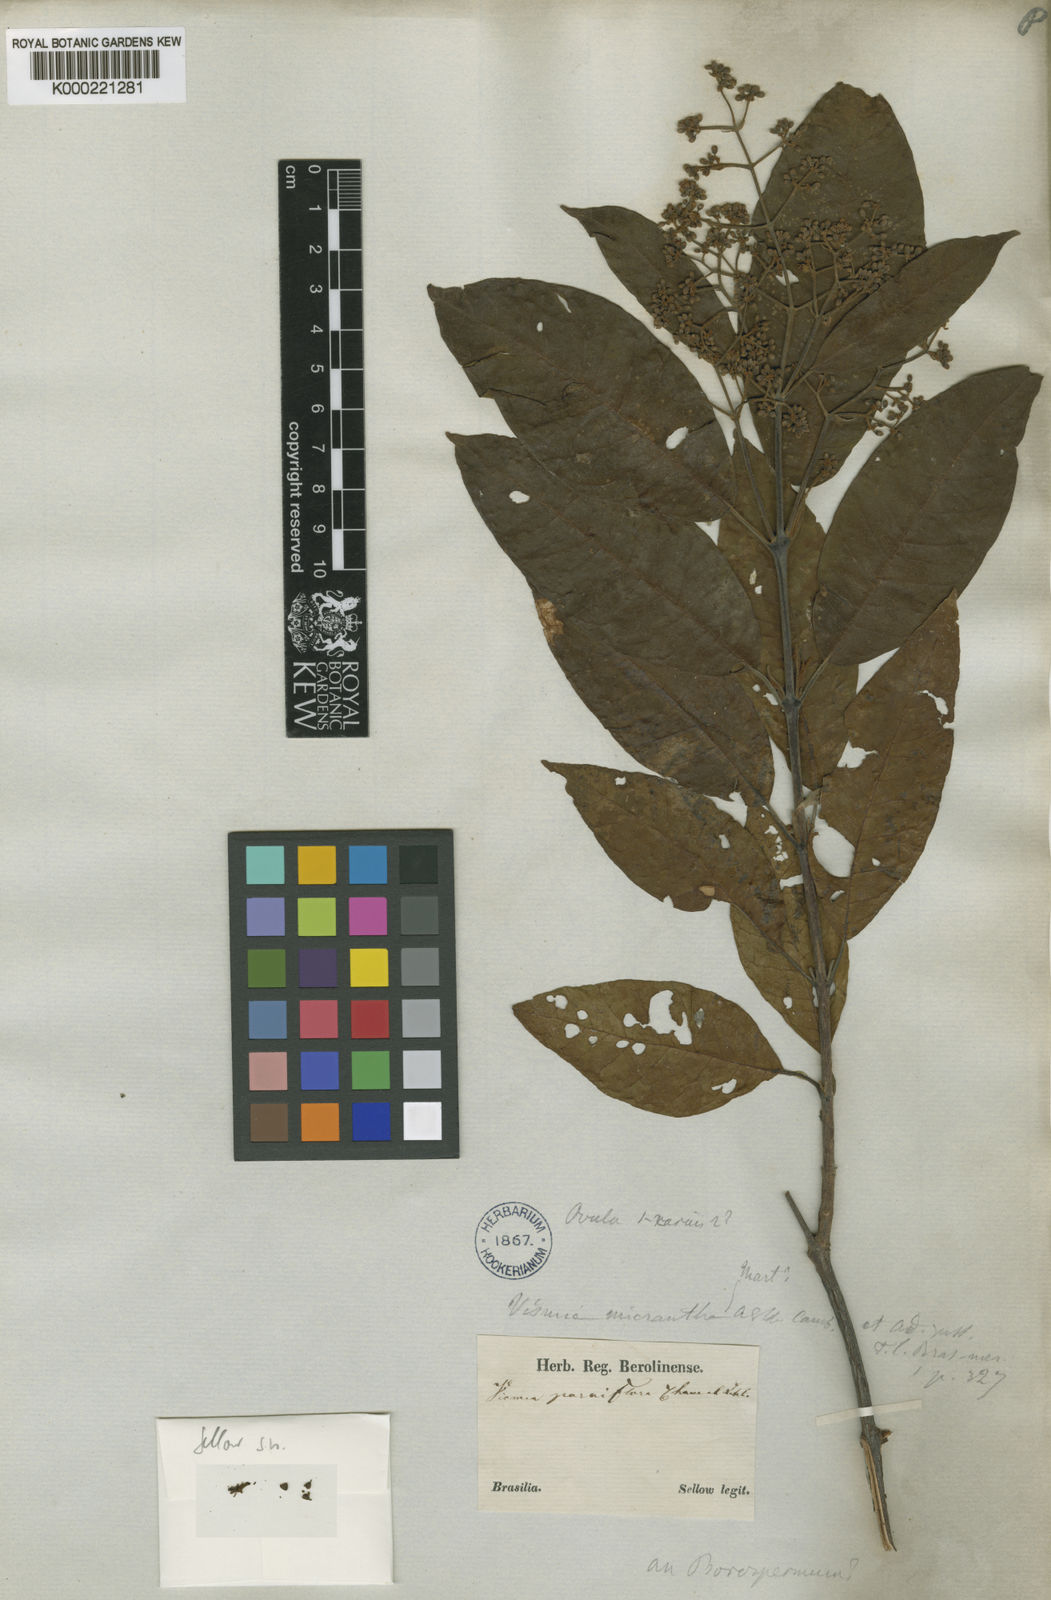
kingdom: Plantae
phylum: Tracheophyta
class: Magnoliopsida
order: Malpighiales
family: Hypericaceae
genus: Vismia
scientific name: Vismia parviflora
